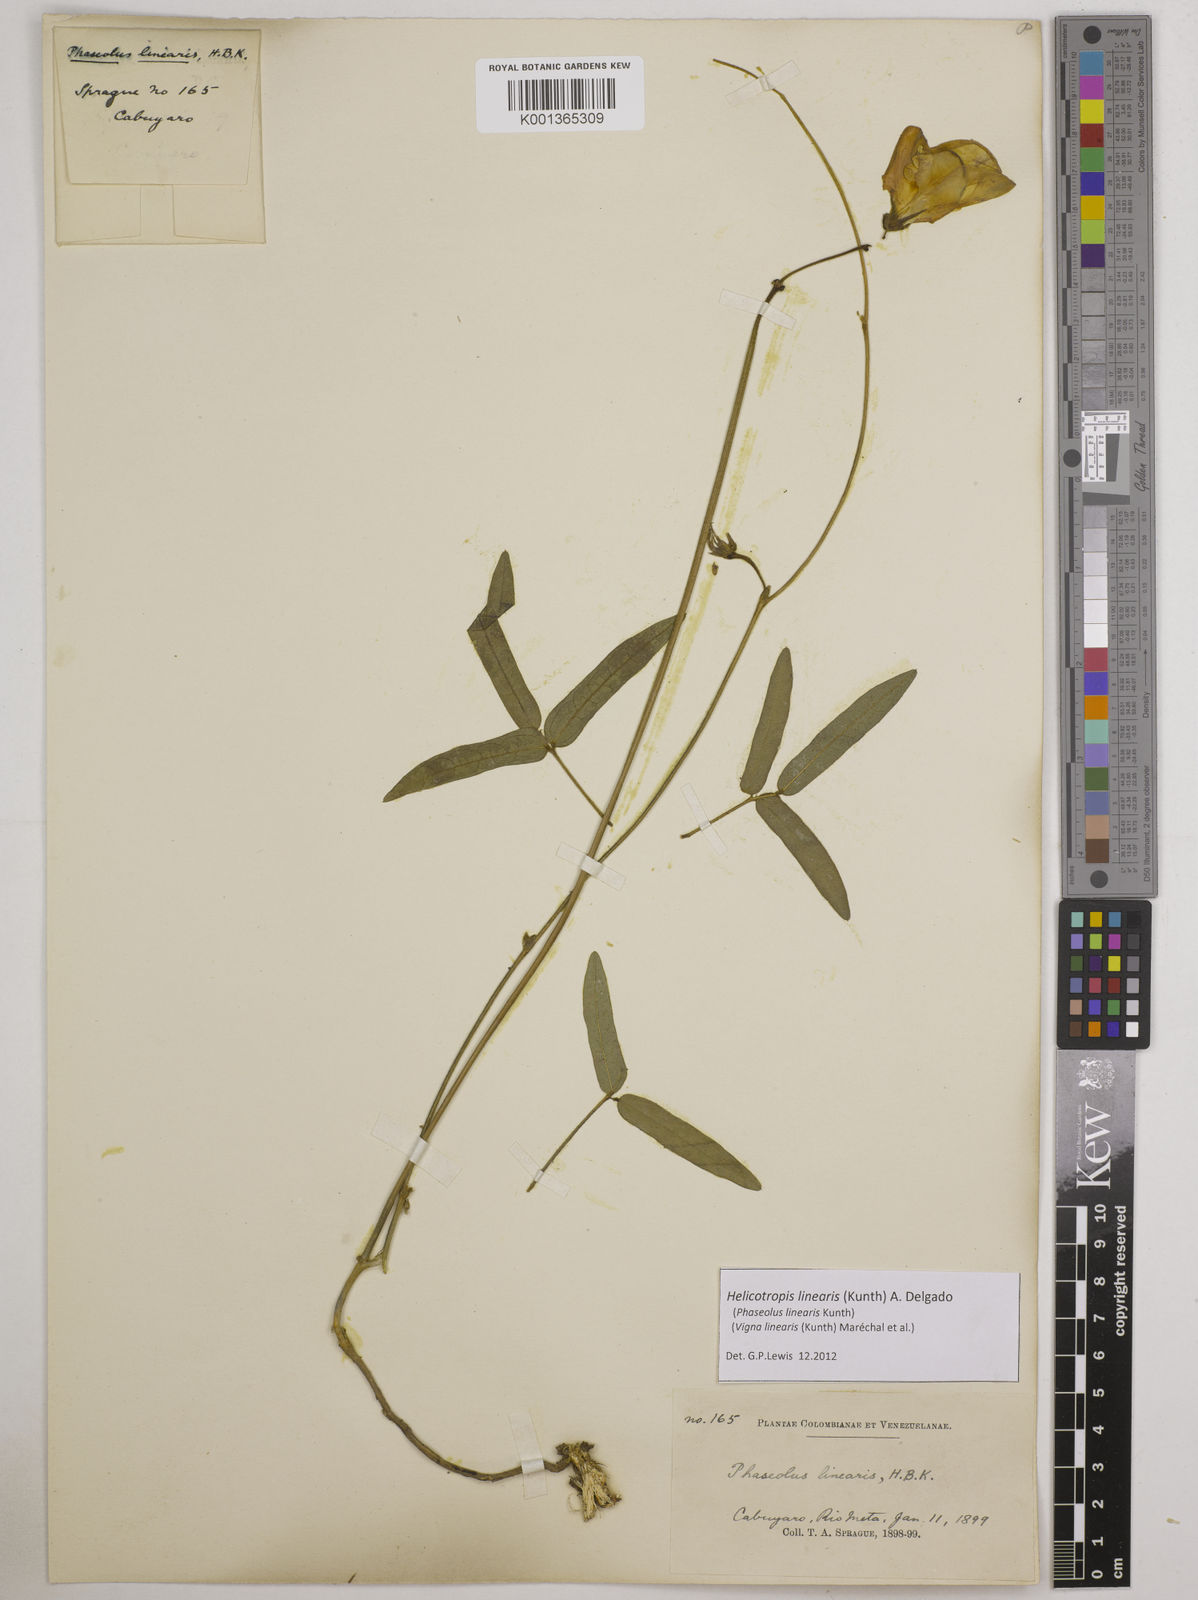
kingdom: Plantae
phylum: Tracheophyta
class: Magnoliopsida
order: Fabales
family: Fabaceae
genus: Helicotropis
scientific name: Helicotropis linearis
